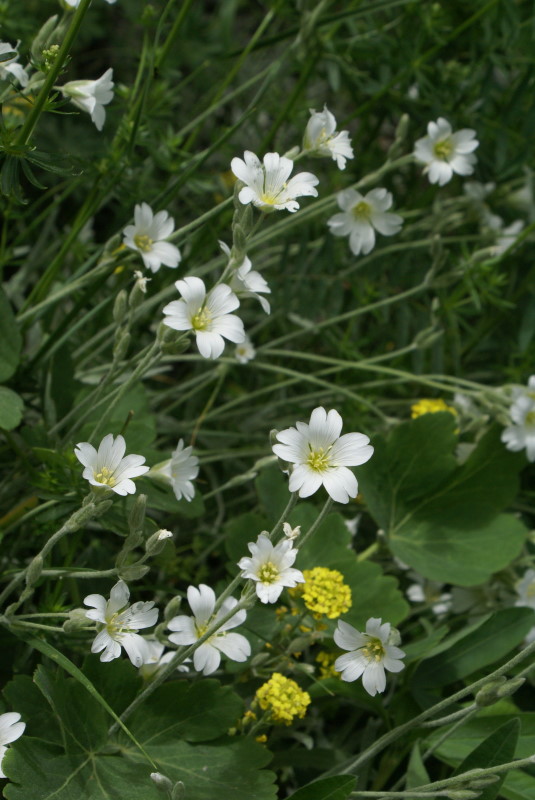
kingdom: Plantae
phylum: Tracheophyta
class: Magnoliopsida
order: Caryophyllales
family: Caryophyllaceae
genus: Cerastium
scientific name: Cerastium biebersteinii
